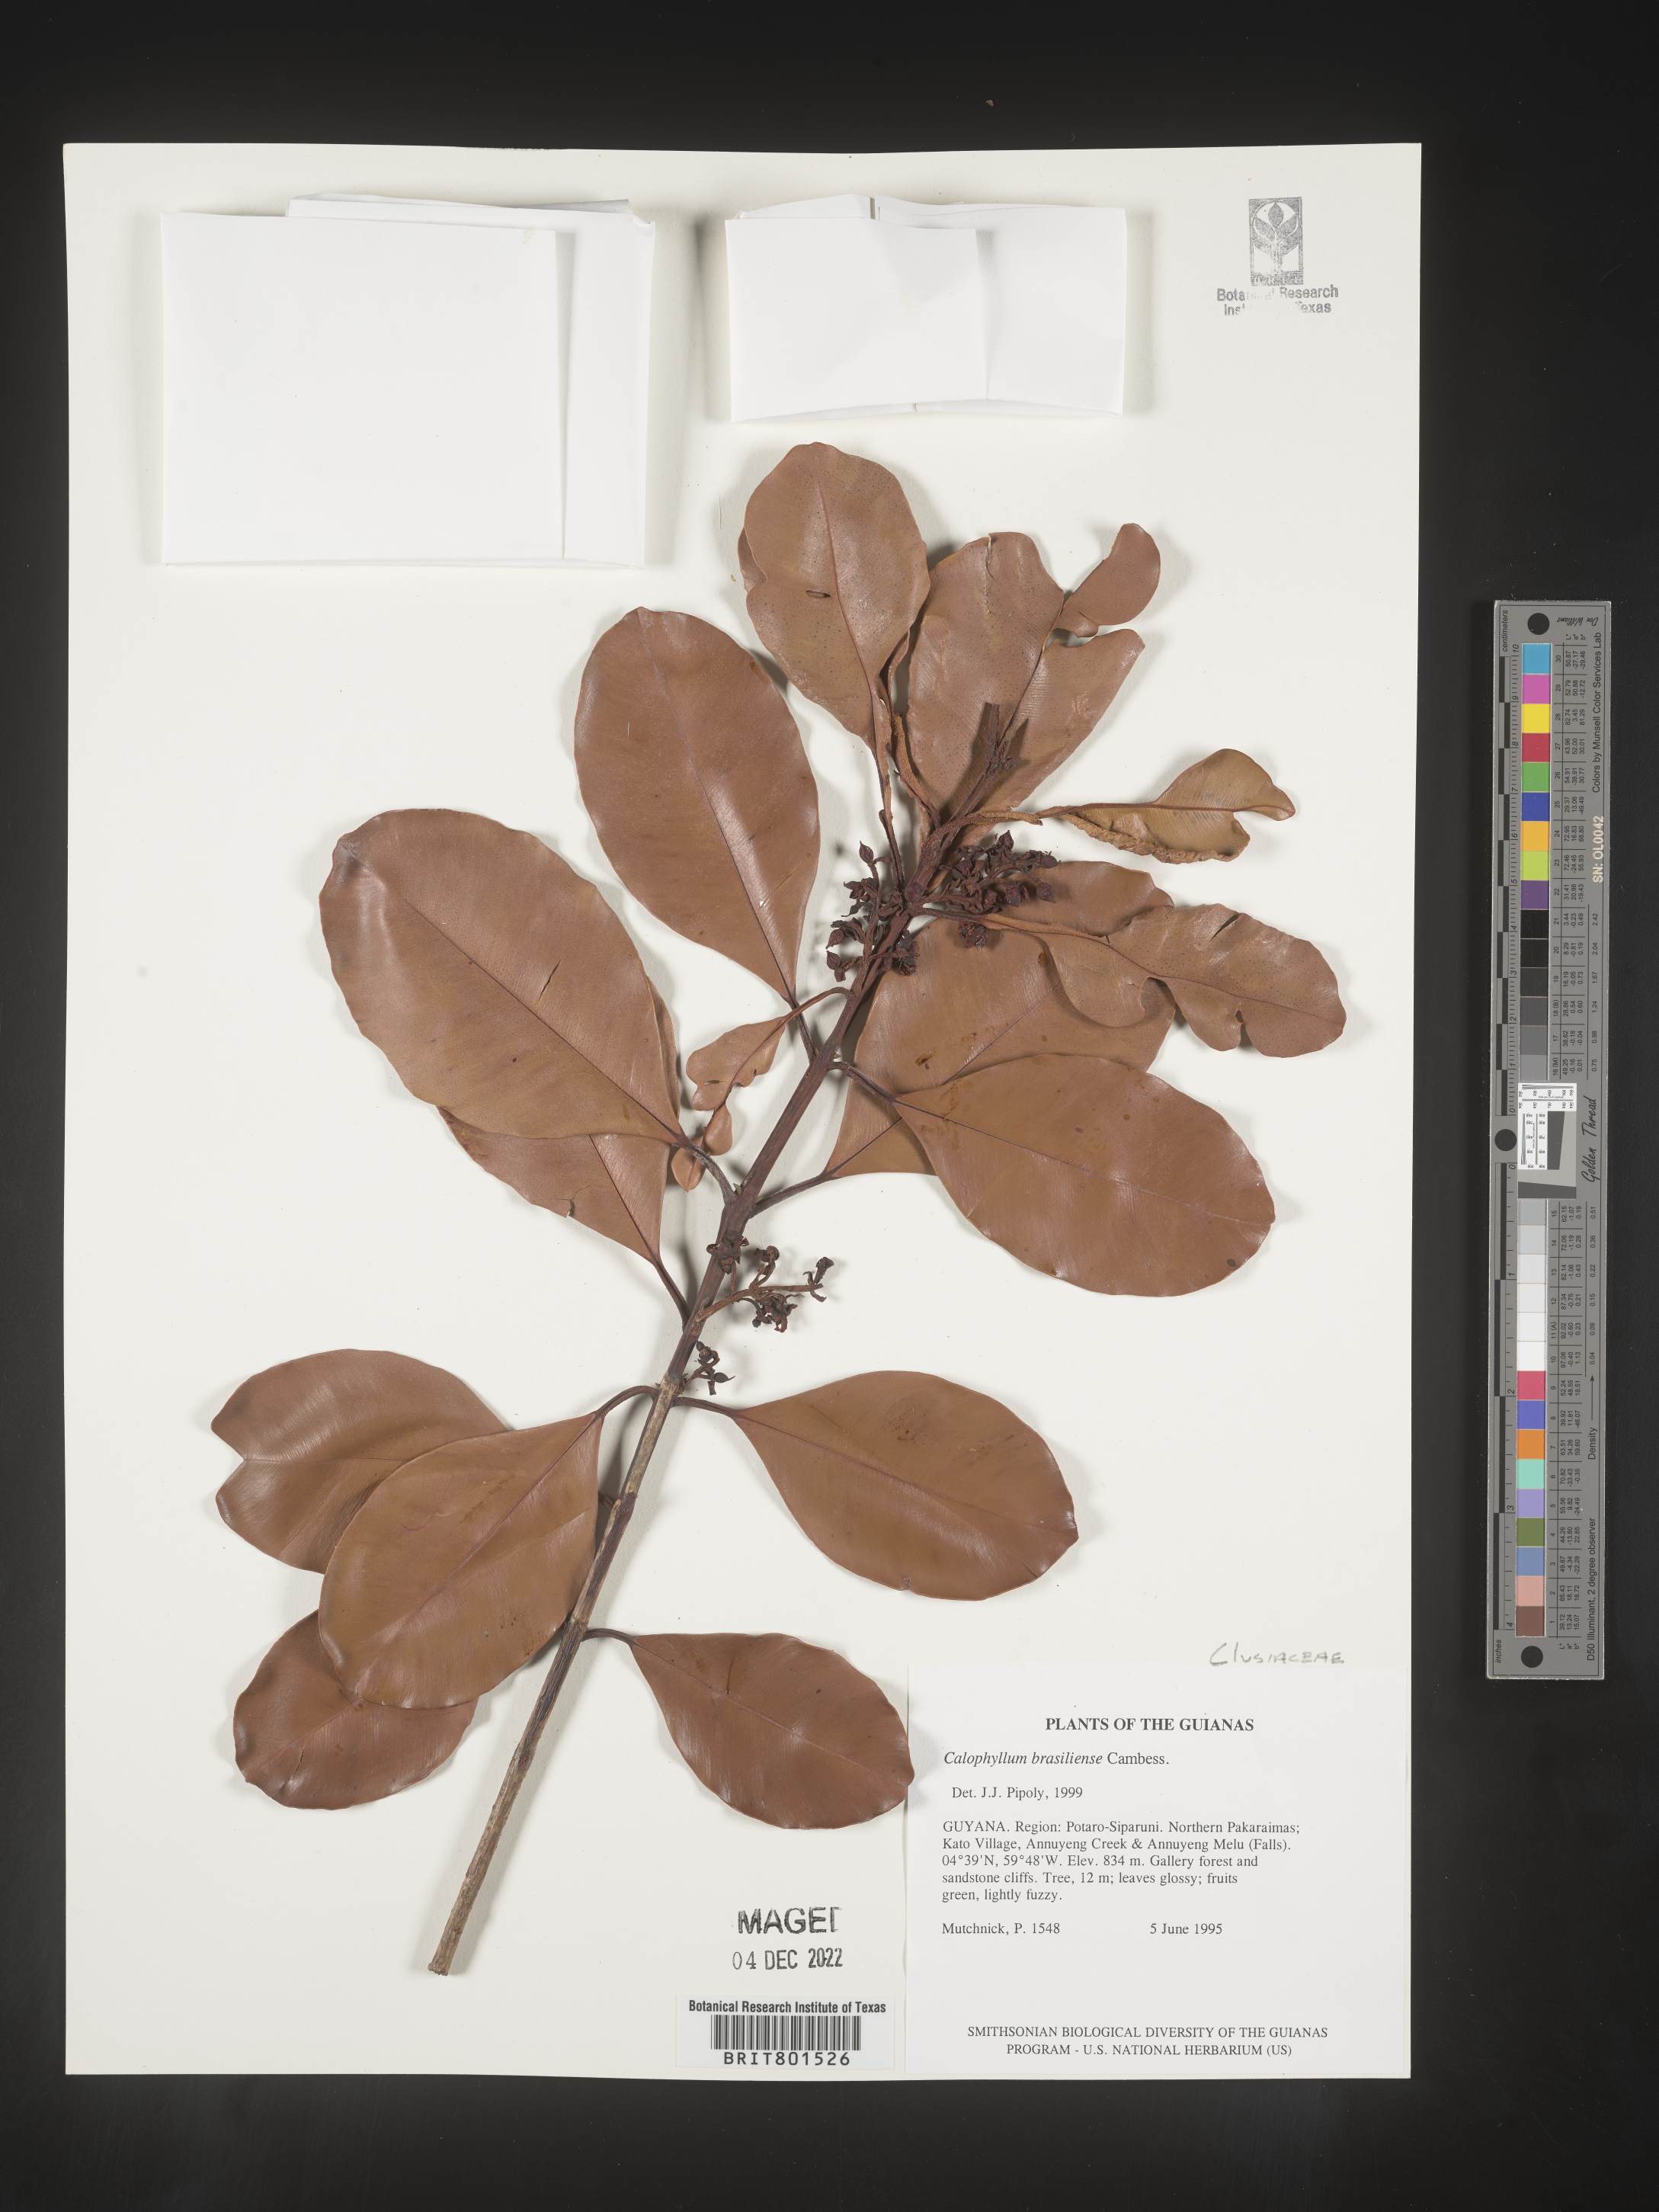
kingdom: Plantae
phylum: Tracheophyta
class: Magnoliopsida
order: Malpighiales
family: Calophyllaceae
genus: Calophyllum
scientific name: Calophyllum brasiliense
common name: Santa maria
